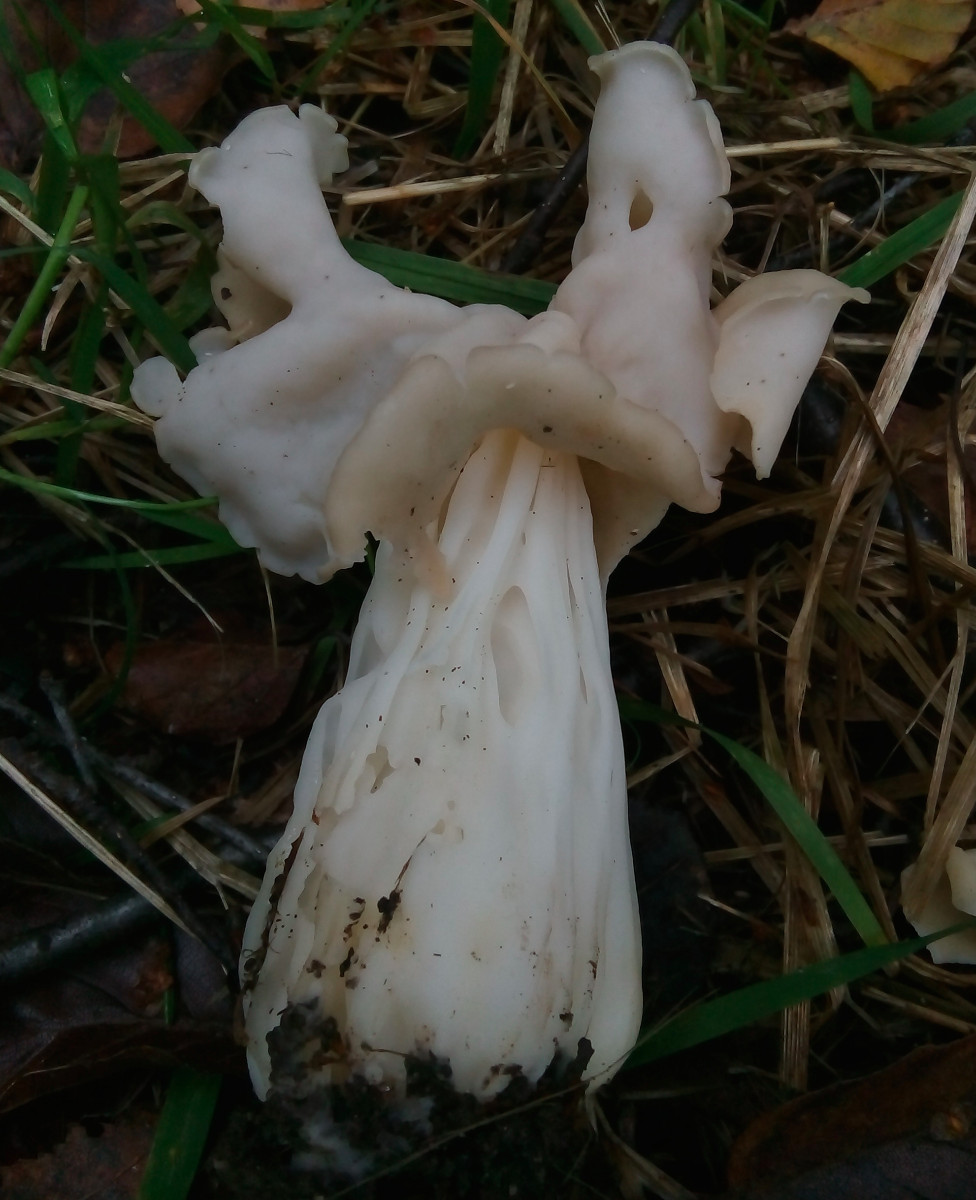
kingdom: Fungi
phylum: Ascomycota
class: Pezizomycetes
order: Pezizales
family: Helvellaceae
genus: Helvella
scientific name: Helvella crispa
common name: kruset foldhat
